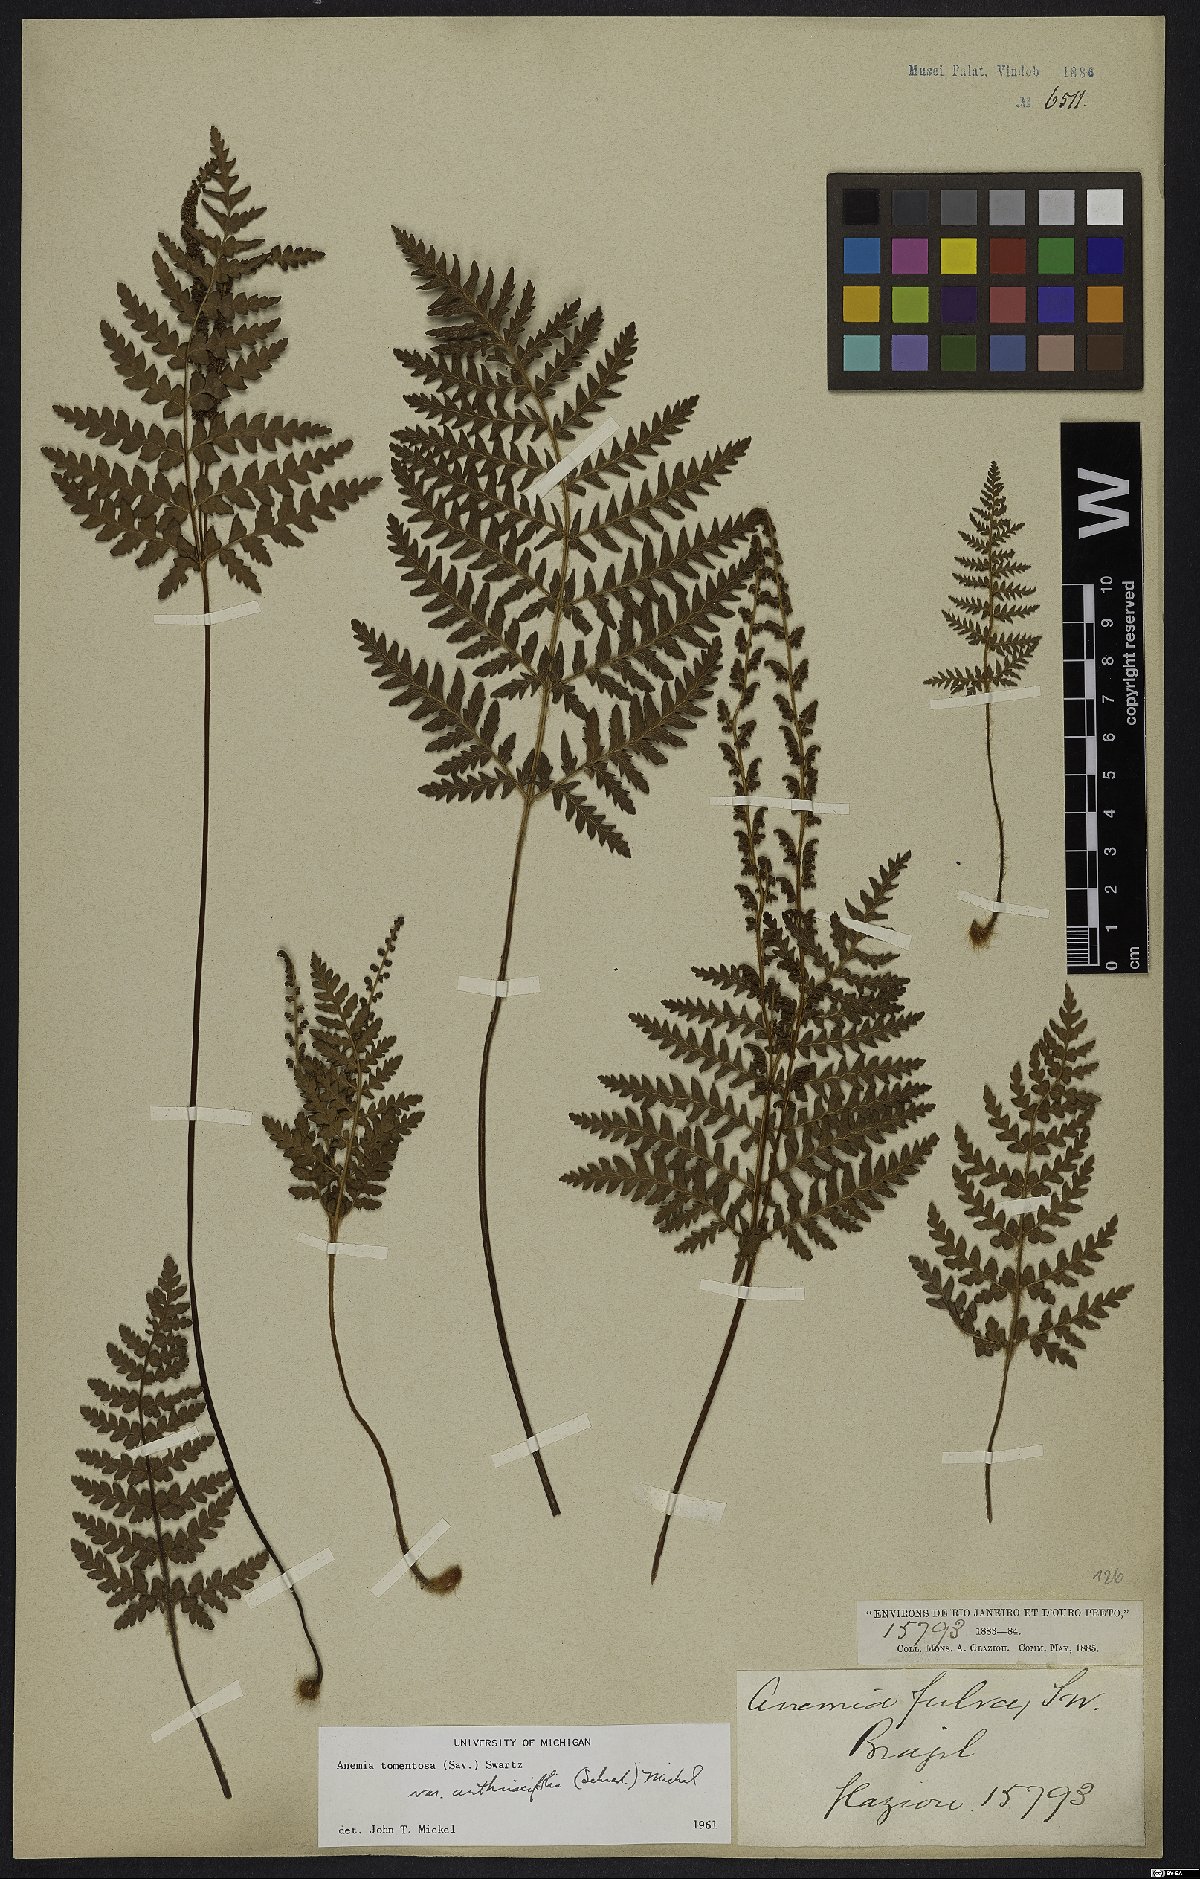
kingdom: Plantae
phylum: Tracheophyta
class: Polypodiopsida
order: Schizaeales
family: Anemiaceae
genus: Anemia
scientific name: Anemia tomentosa
